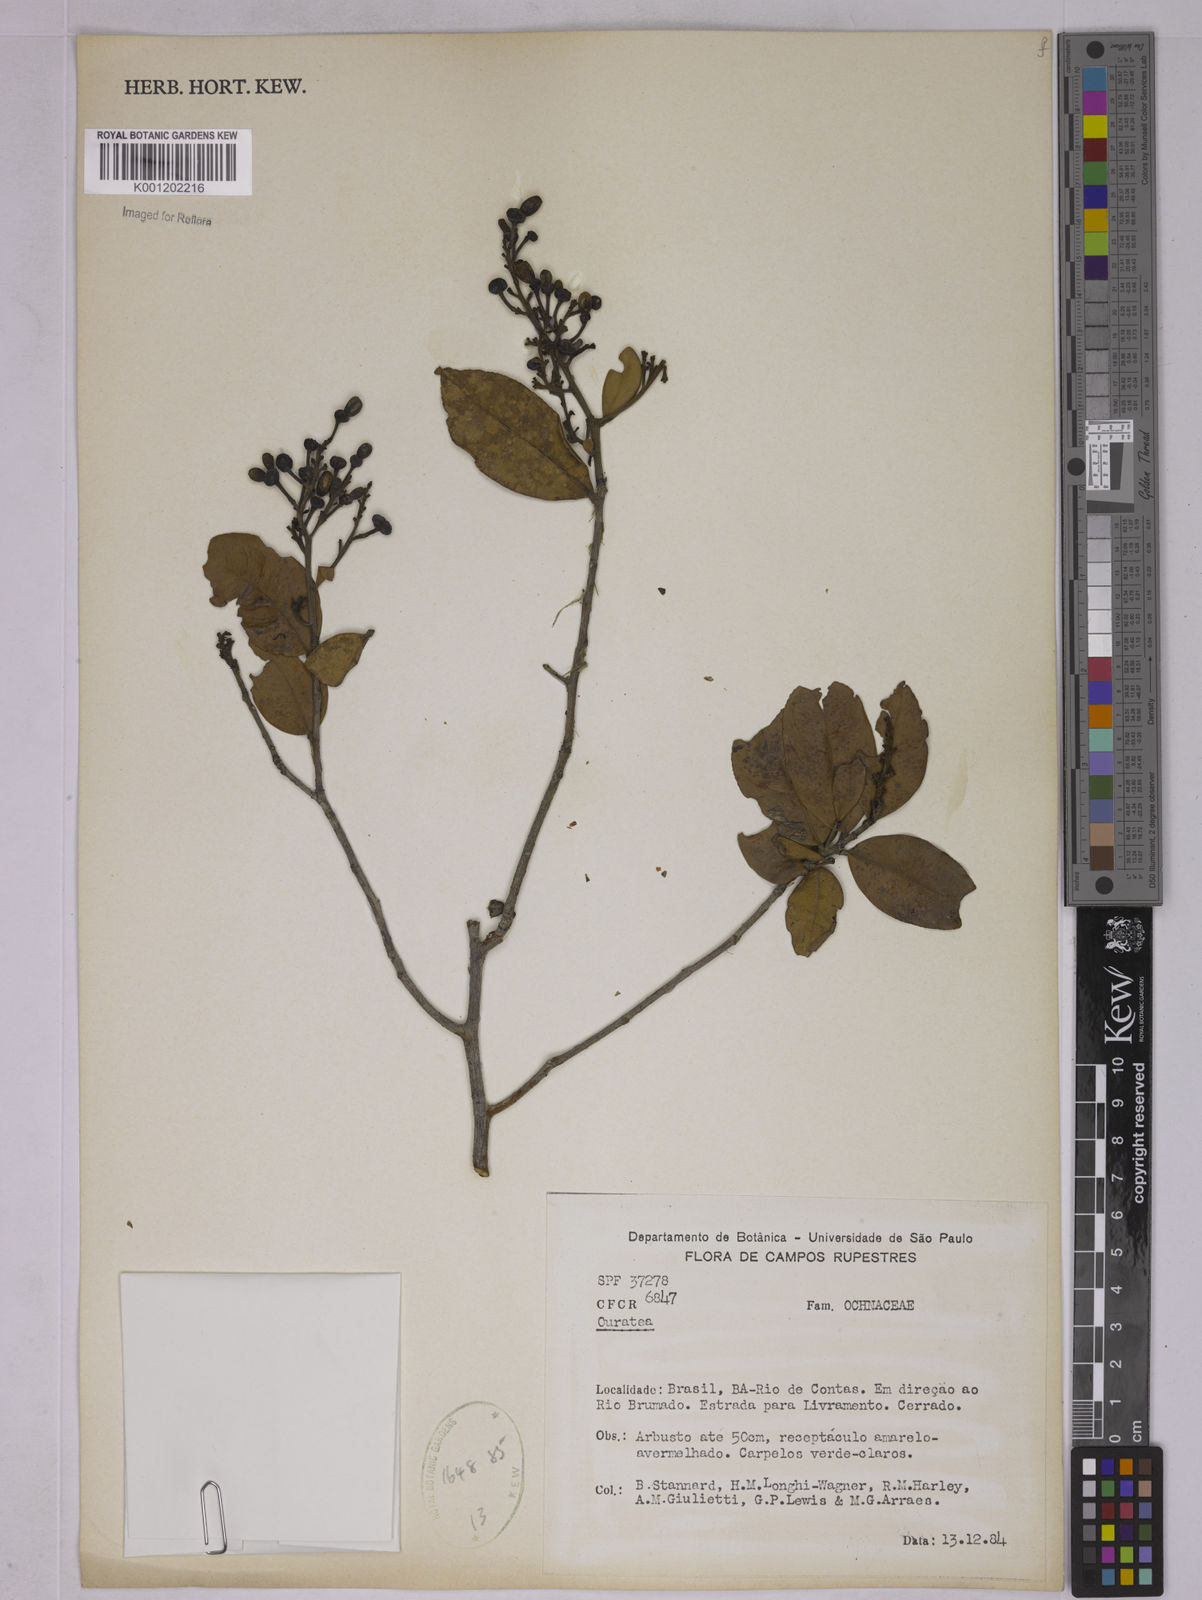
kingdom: Plantae
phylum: Tracheophyta
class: Magnoliopsida
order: Malpighiales
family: Ochnaceae
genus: Ouratea
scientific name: Ouratea
